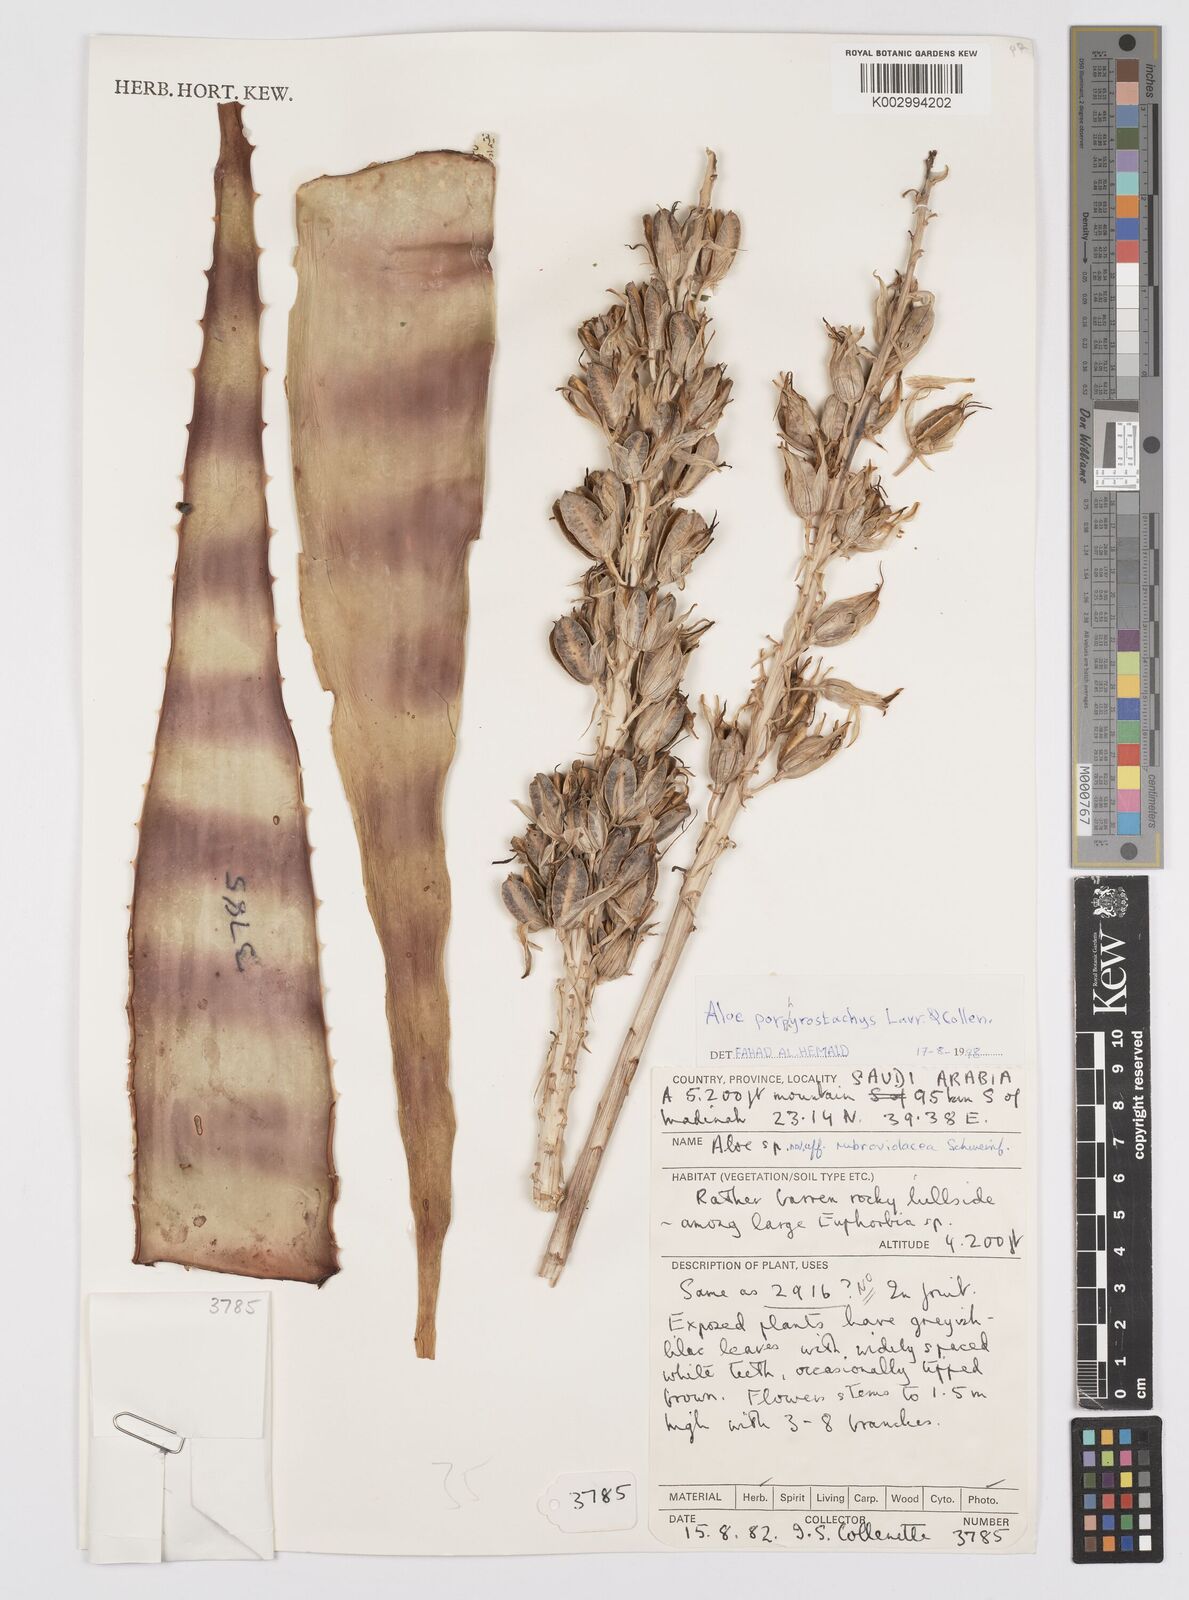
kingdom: Plantae
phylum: Tracheophyta
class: Liliopsida
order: Asparagales
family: Asphodelaceae
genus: Aloe
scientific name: Aloe porphyrostachys
